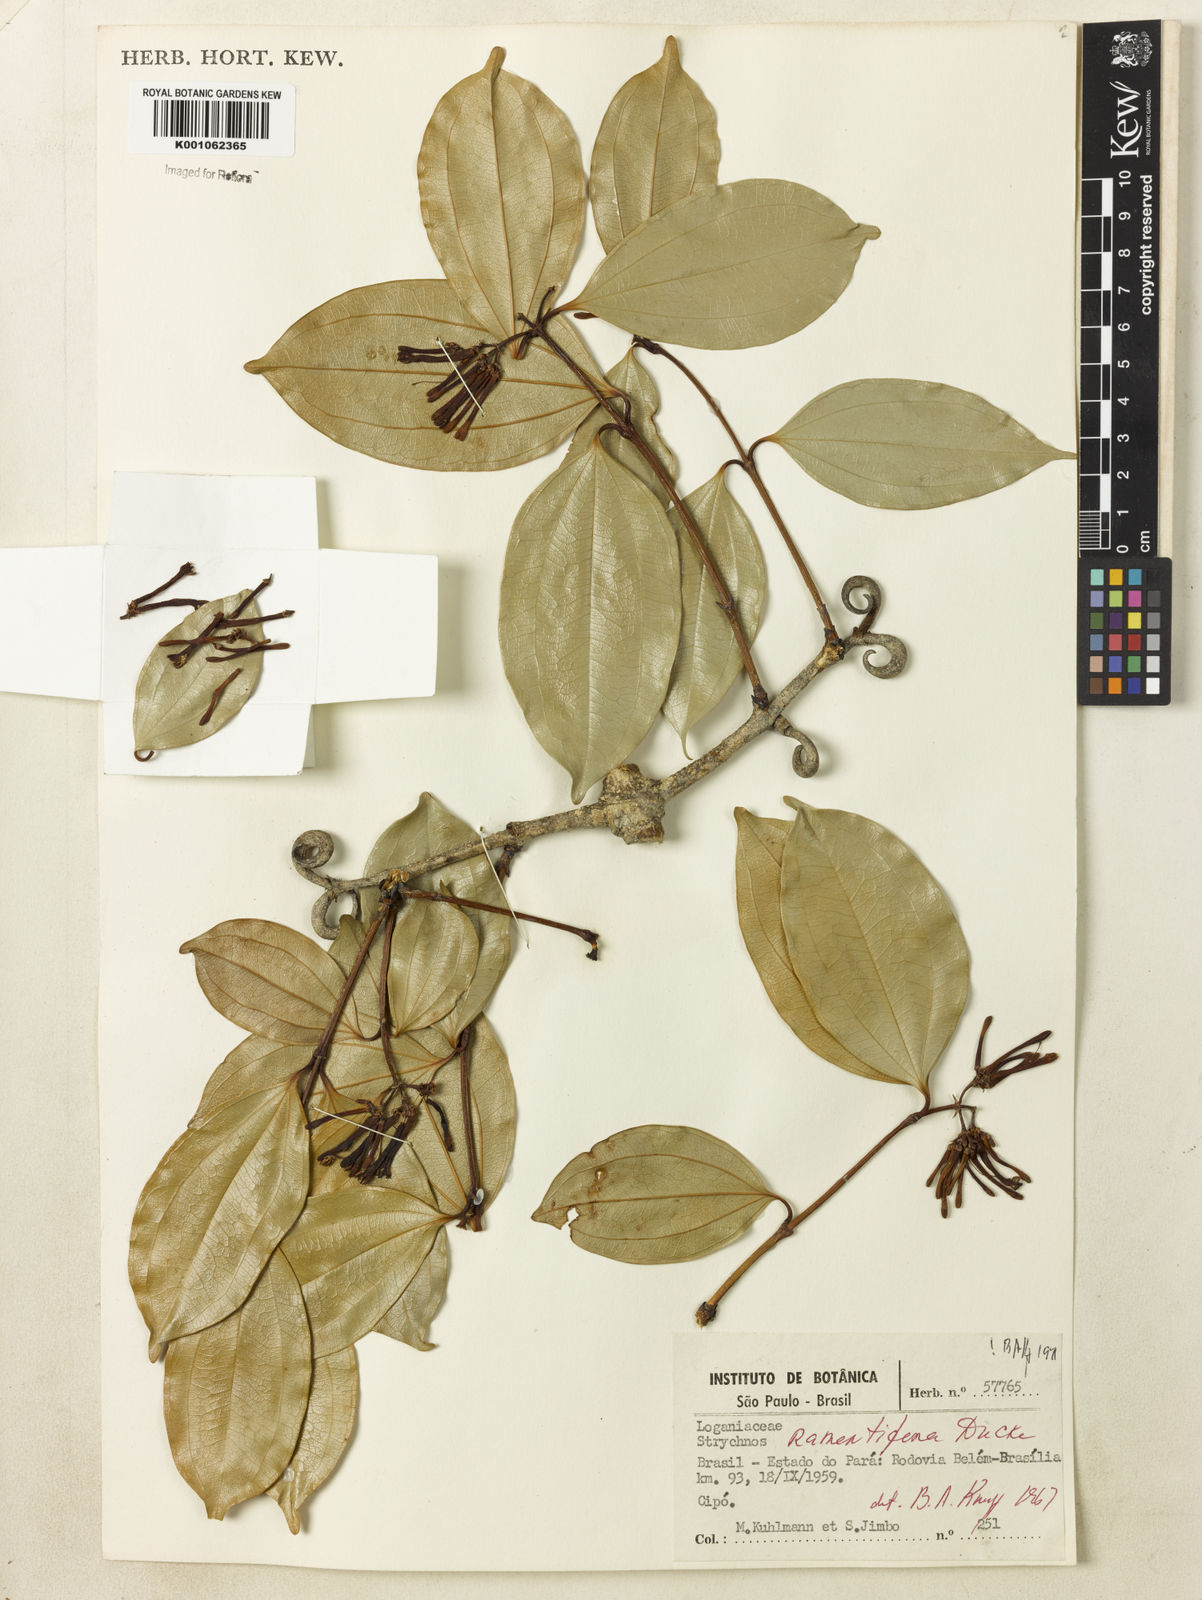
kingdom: Plantae
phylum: Tracheophyta
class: Magnoliopsida
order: Gentianales
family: Loganiaceae
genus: Strychnos
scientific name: Strychnos ramentifera
